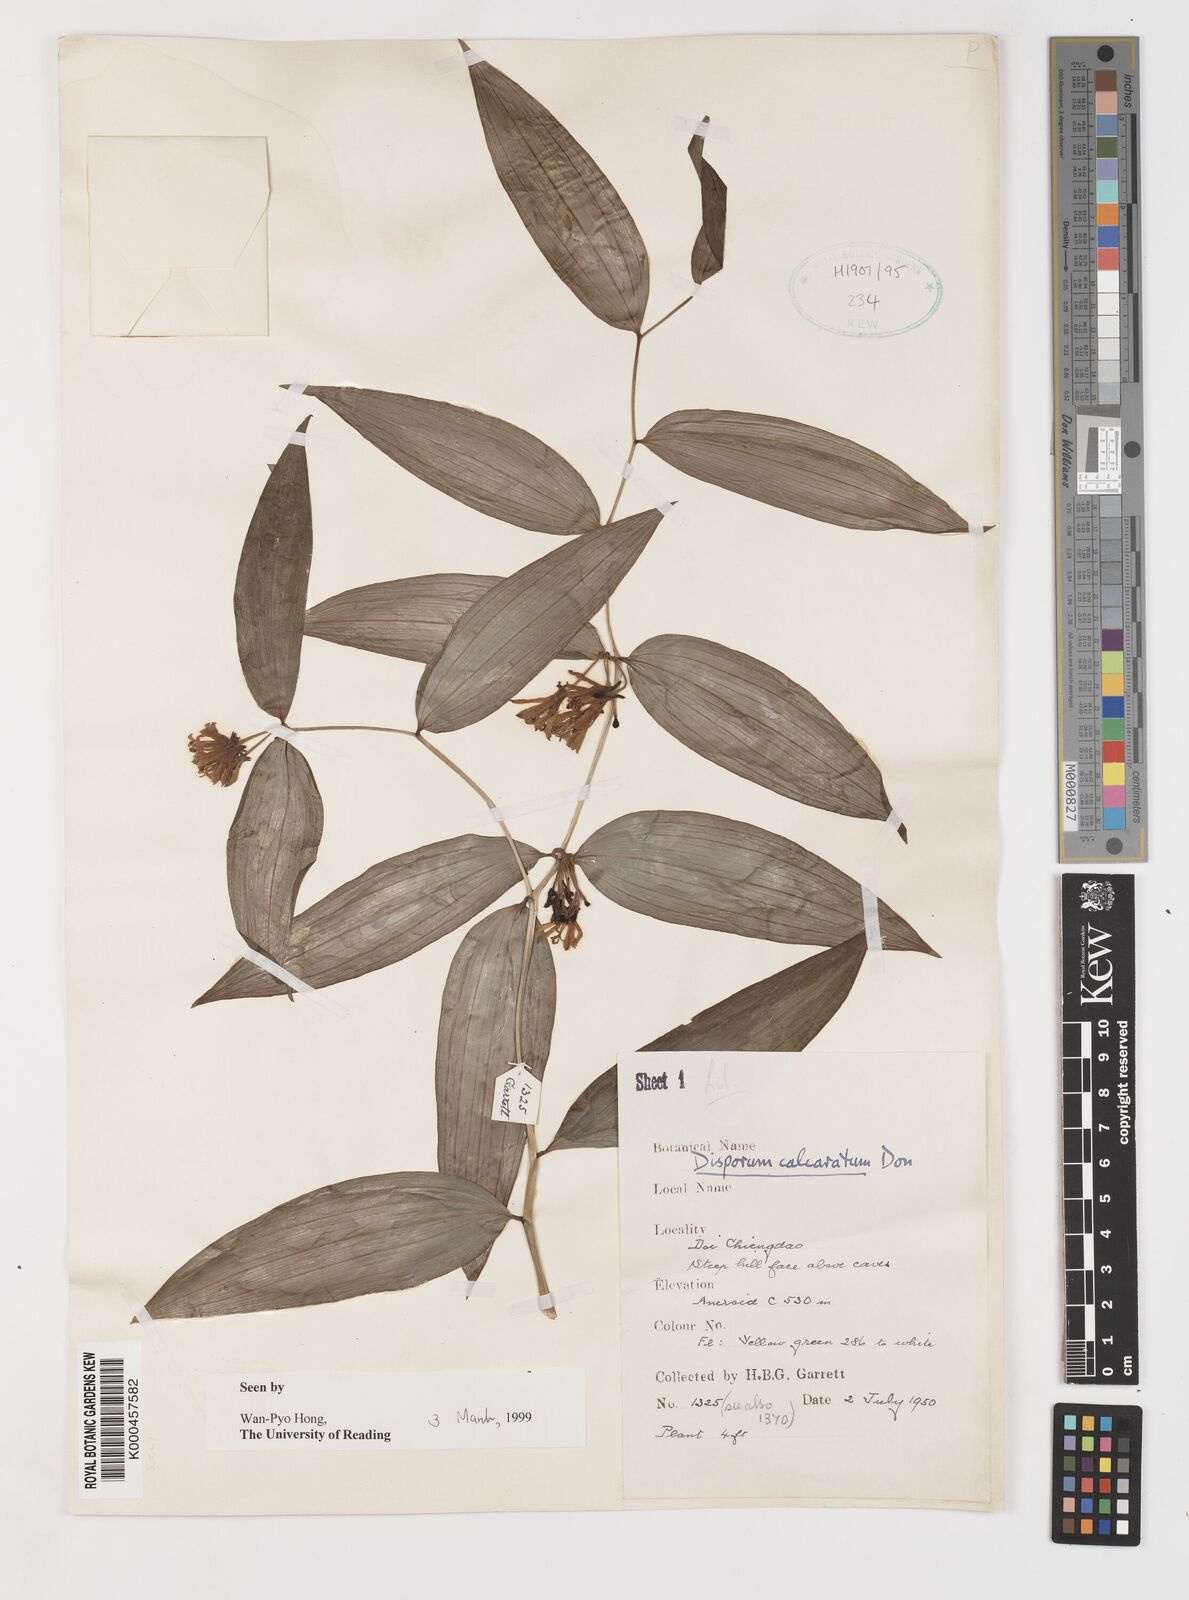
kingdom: Plantae
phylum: Tracheophyta
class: Liliopsida
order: Liliales
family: Colchicaceae
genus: Disporum
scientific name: Disporum calcaratum
